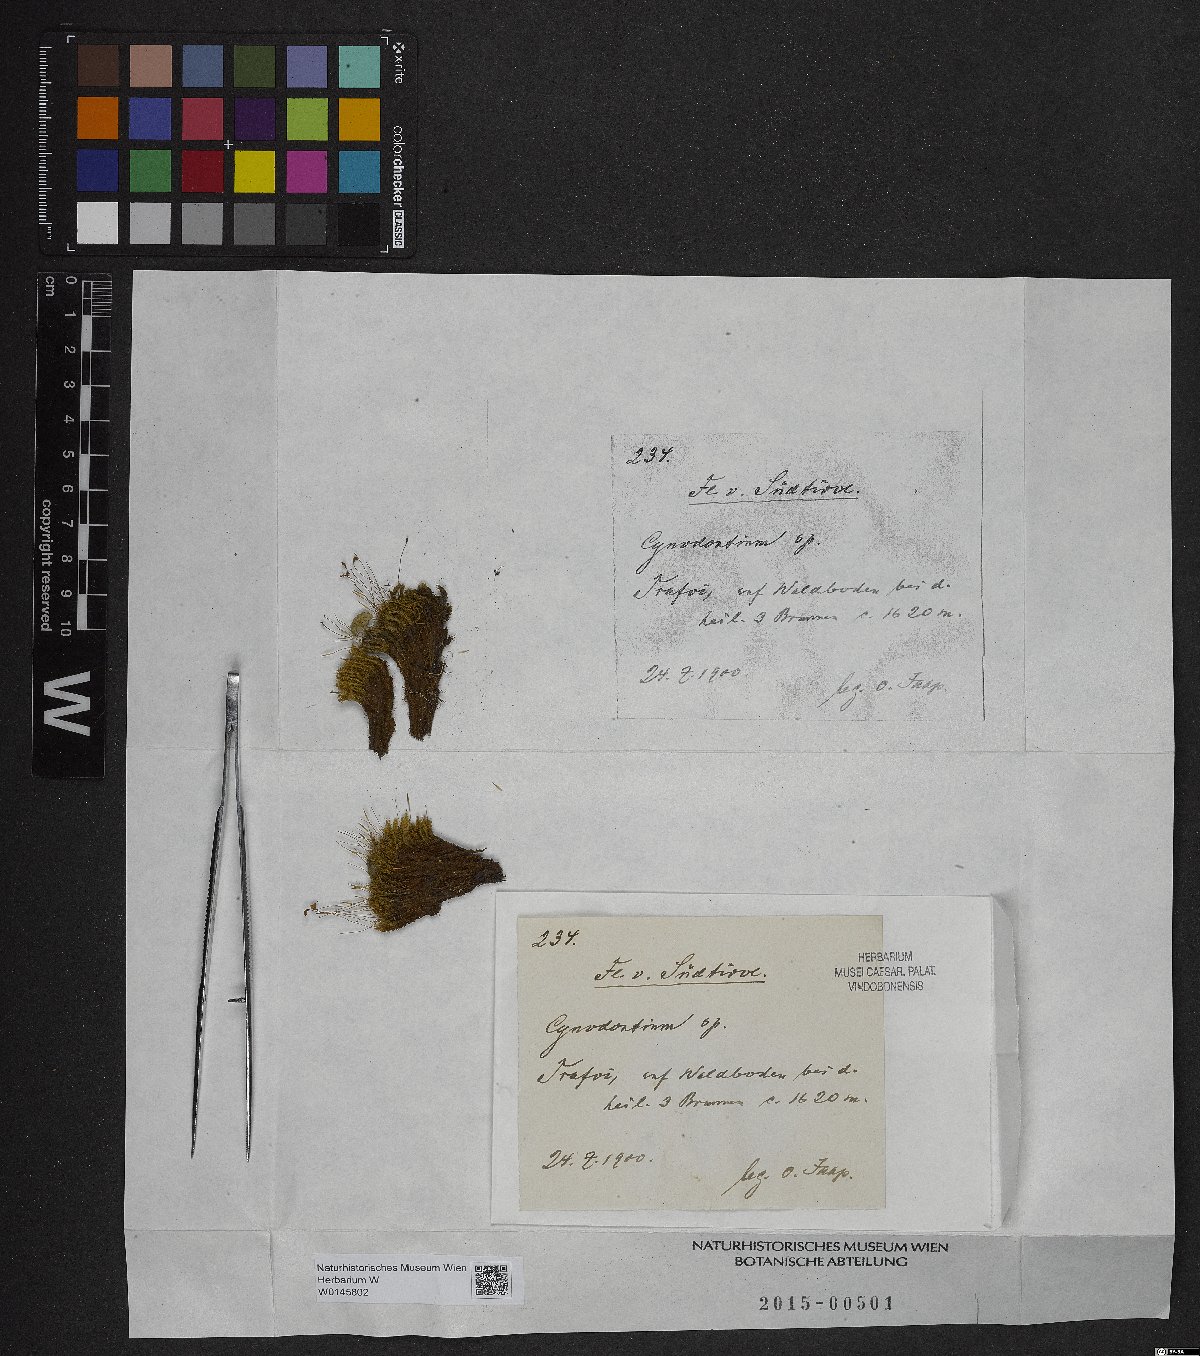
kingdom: Plantae
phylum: Bryophyta
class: Bryopsida
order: Dicranales
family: Rhabdoweisiaceae
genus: Cynodontium
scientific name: Cynodontium
